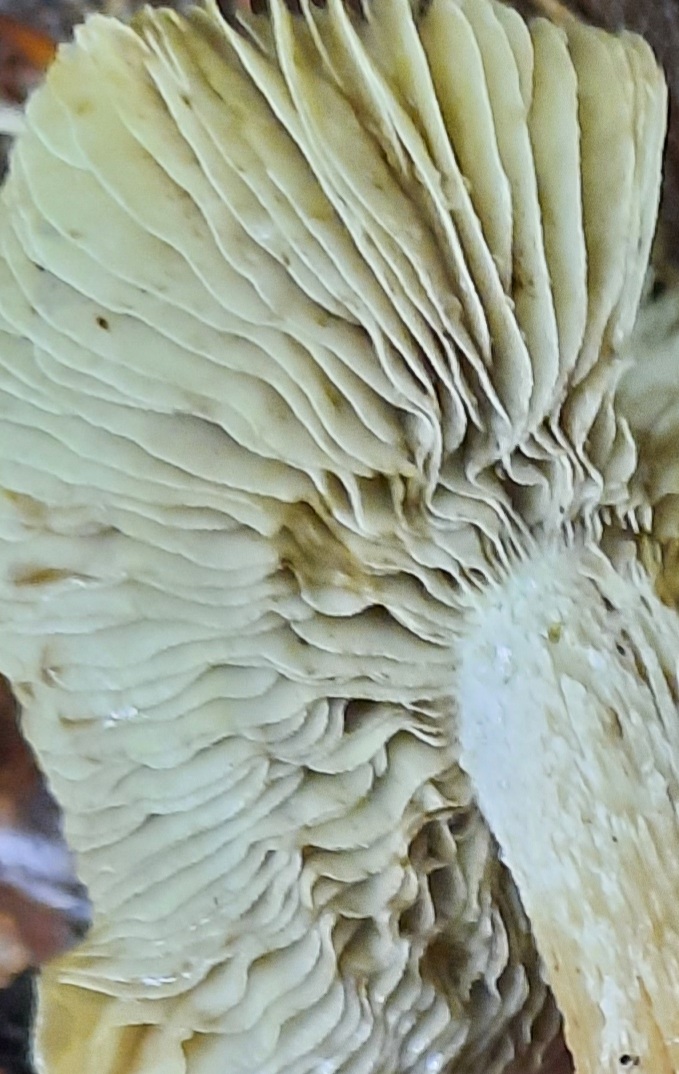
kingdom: Fungi
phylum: Basidiomycota
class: Agaricomycetes
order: Agaricales
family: Inocybaceae
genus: Pseudosperma
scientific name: Pseudosperma
